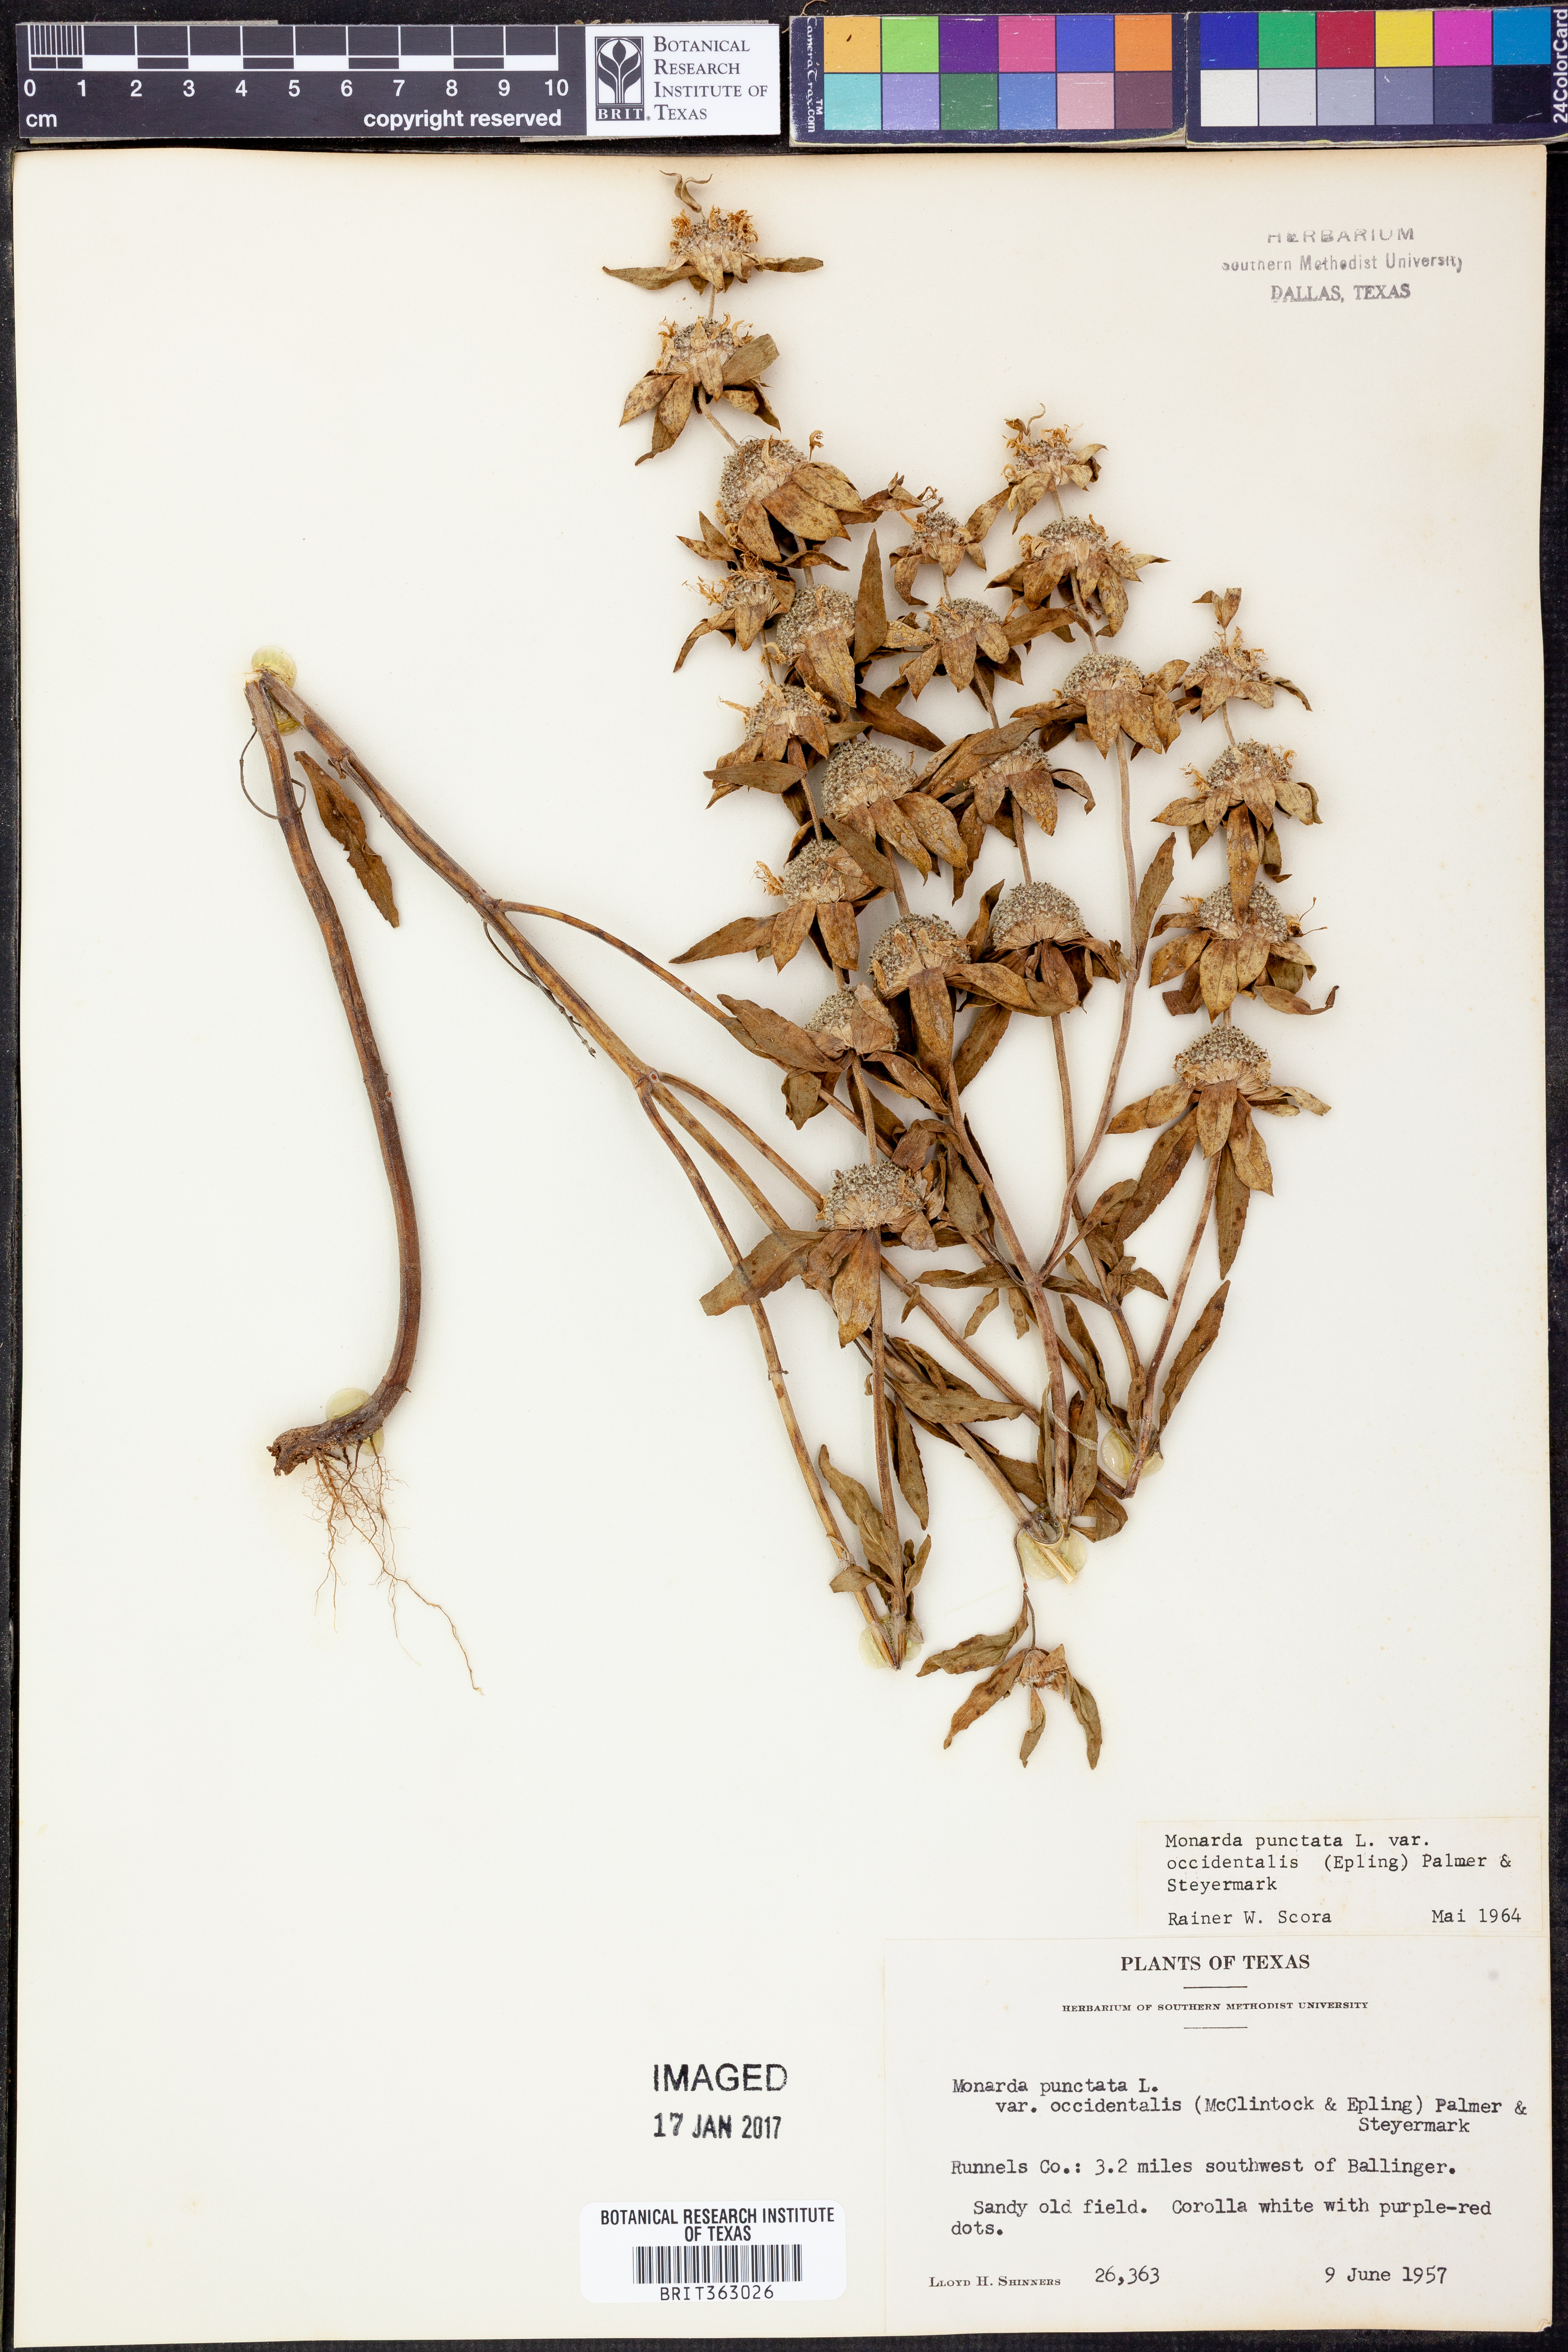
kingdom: Plantae
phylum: Tracheophyta
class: Magnoliopsida
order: Lamiales
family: Lamiaceae
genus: Monarda
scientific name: Monarda punctata
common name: Dotted monarda
